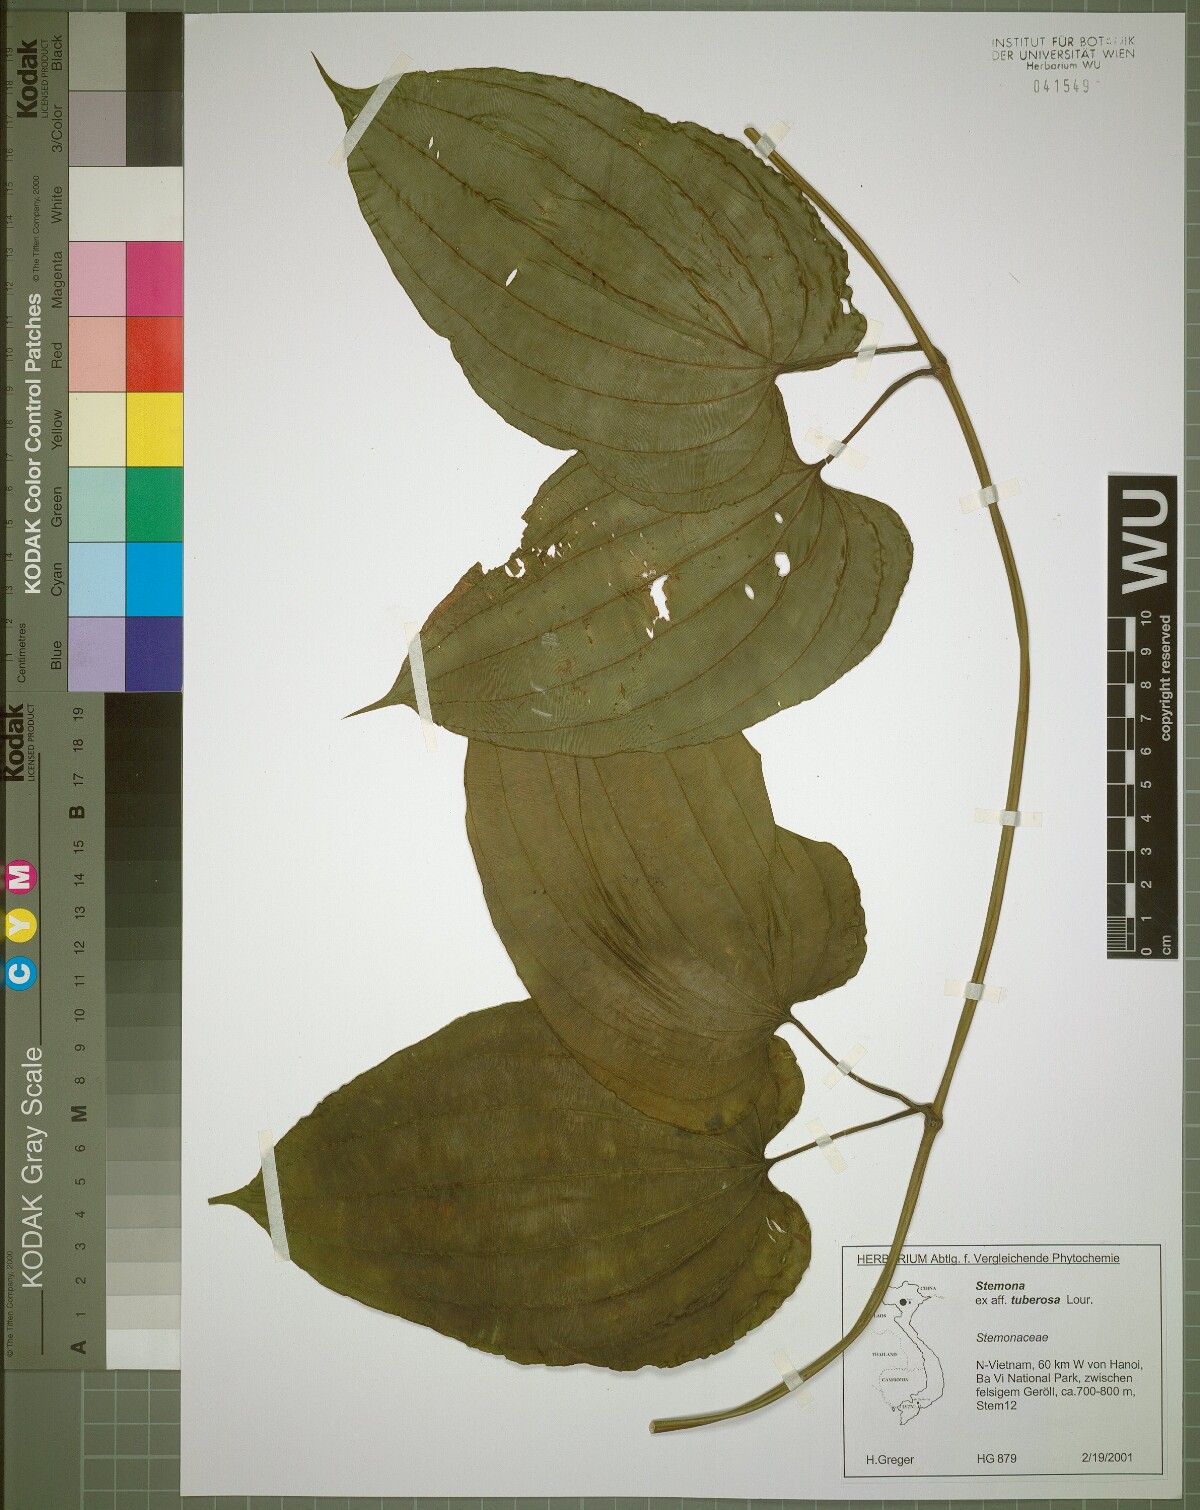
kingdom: Plantae
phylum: Tracheophyta
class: Liliopsida
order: Pandanales
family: Stemonaceae
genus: Stemona
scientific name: Stemona tuberosa
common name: Stemona
